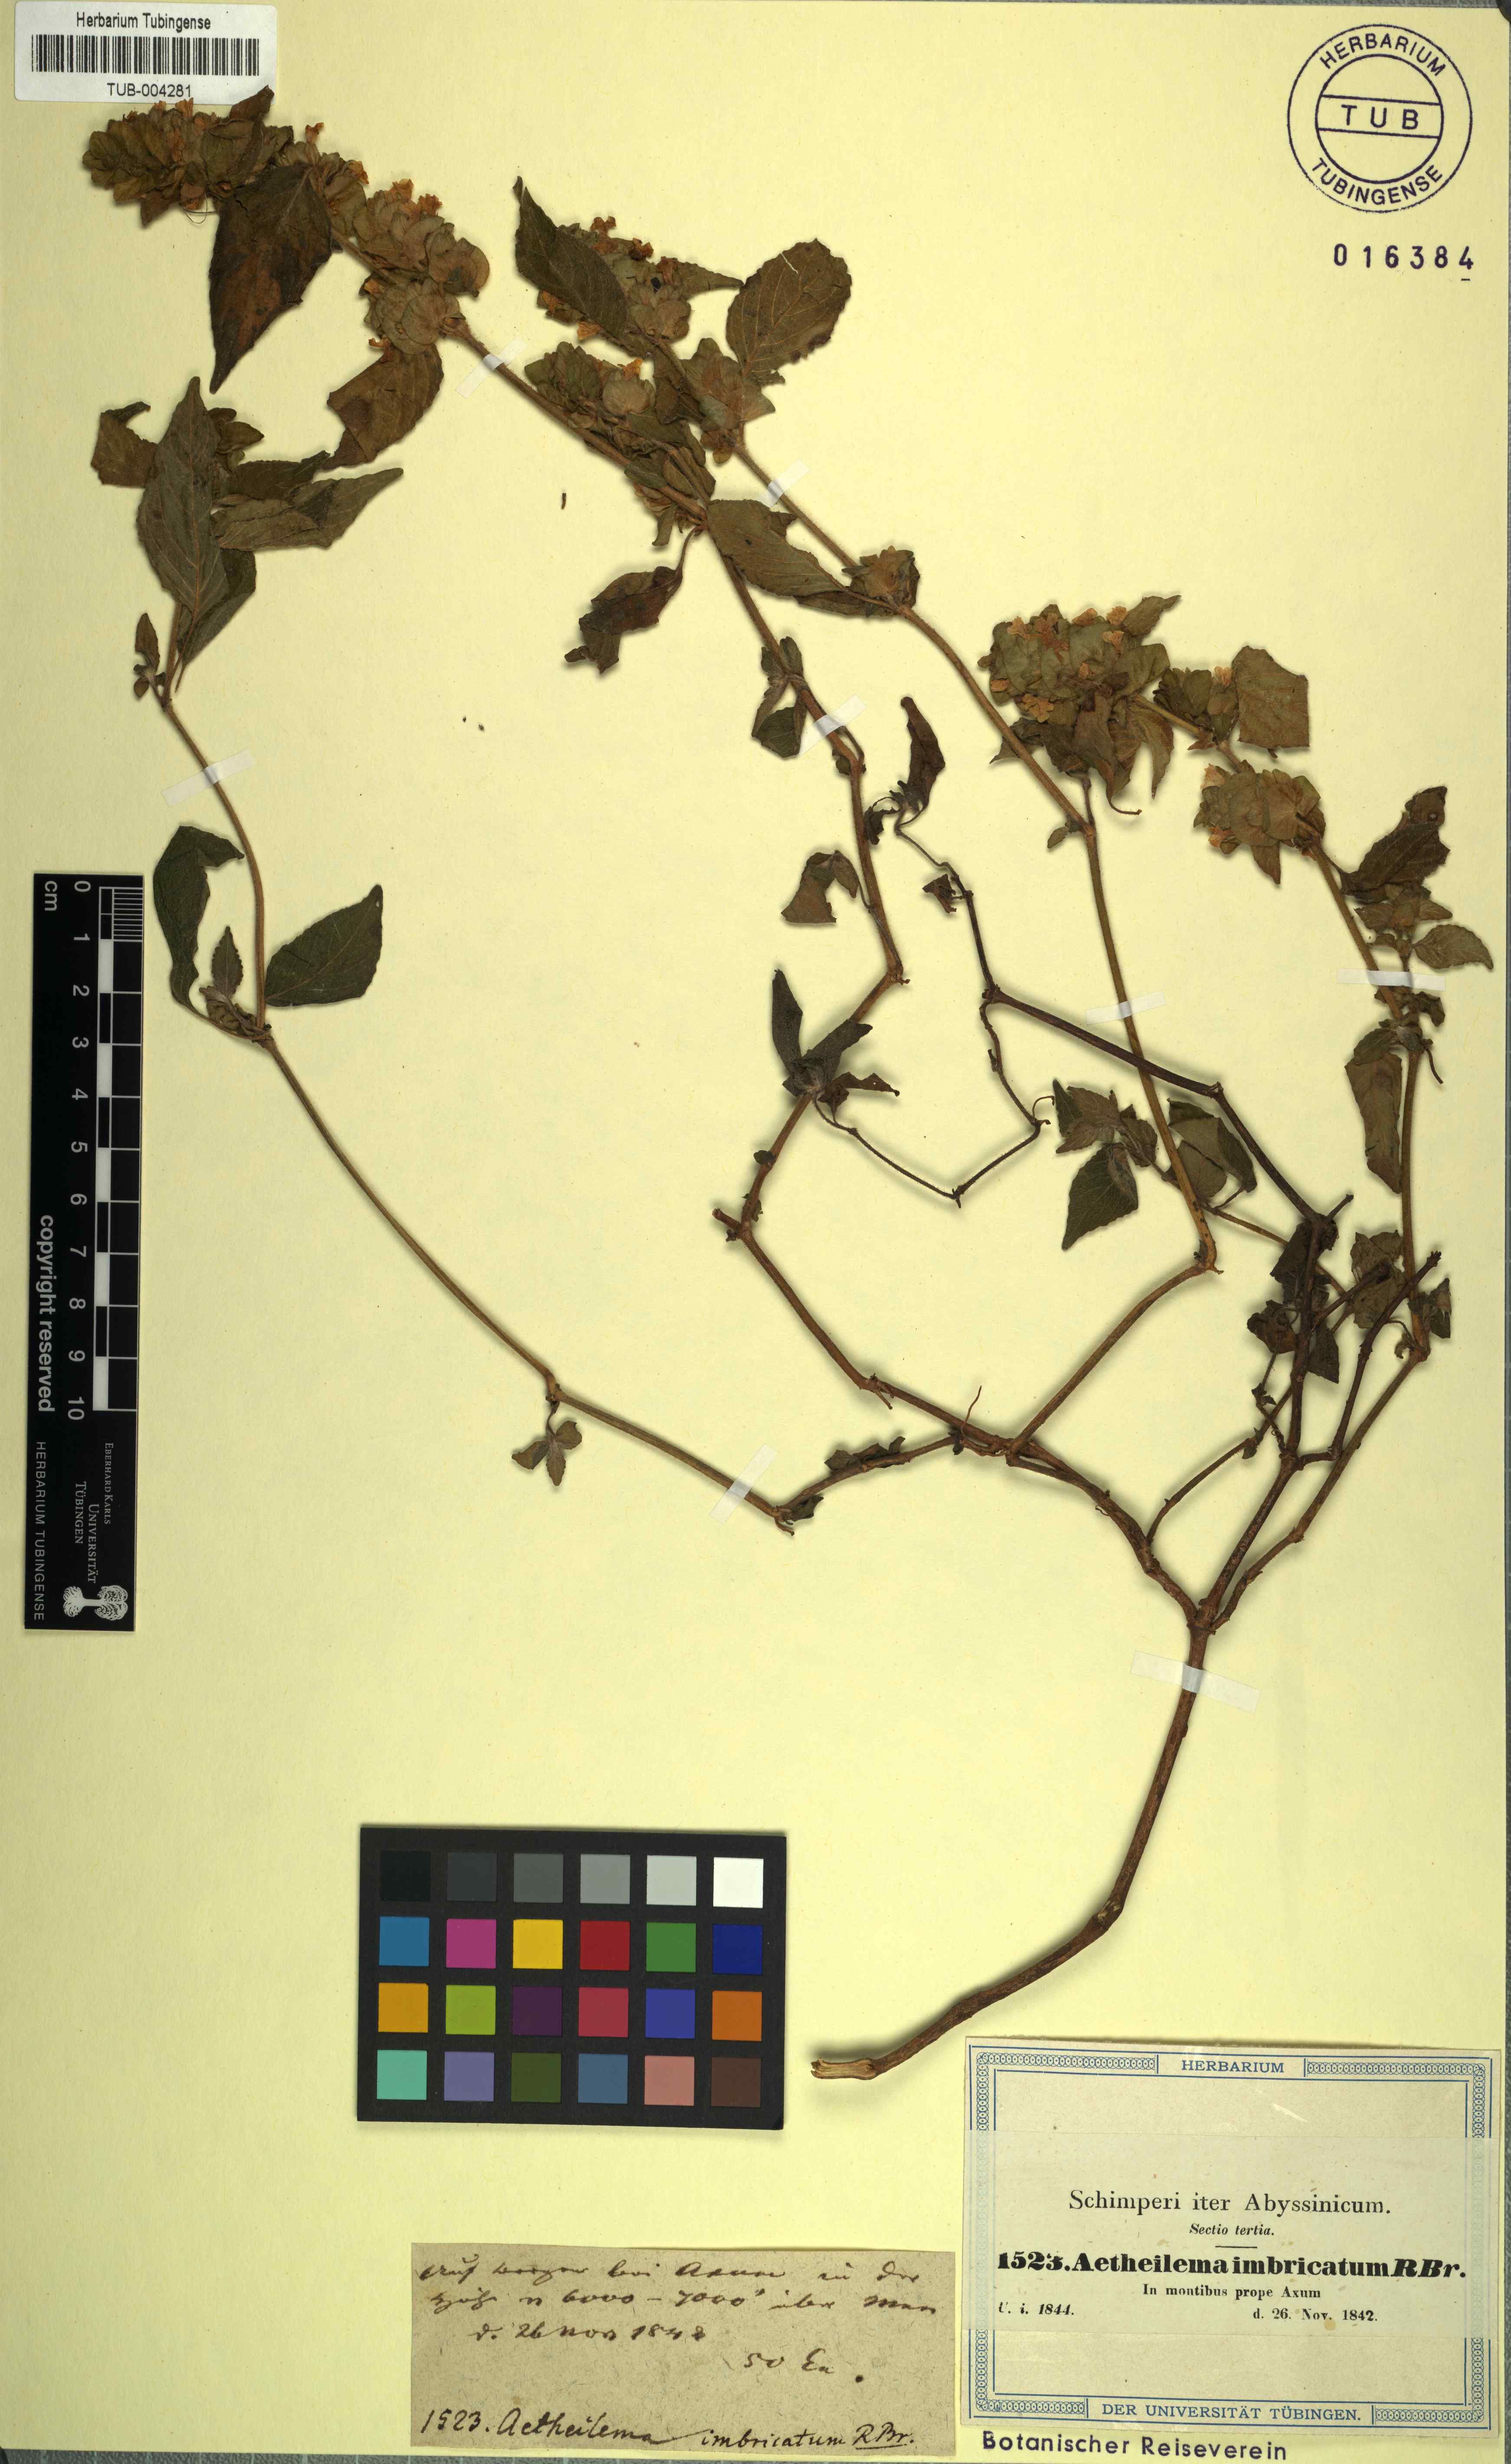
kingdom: Plantae
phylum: Tracheophyta
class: Magnoliopsida
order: Lamiales
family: Acanthaceae
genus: Phaulopsis
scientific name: Phaulopsis barteri
